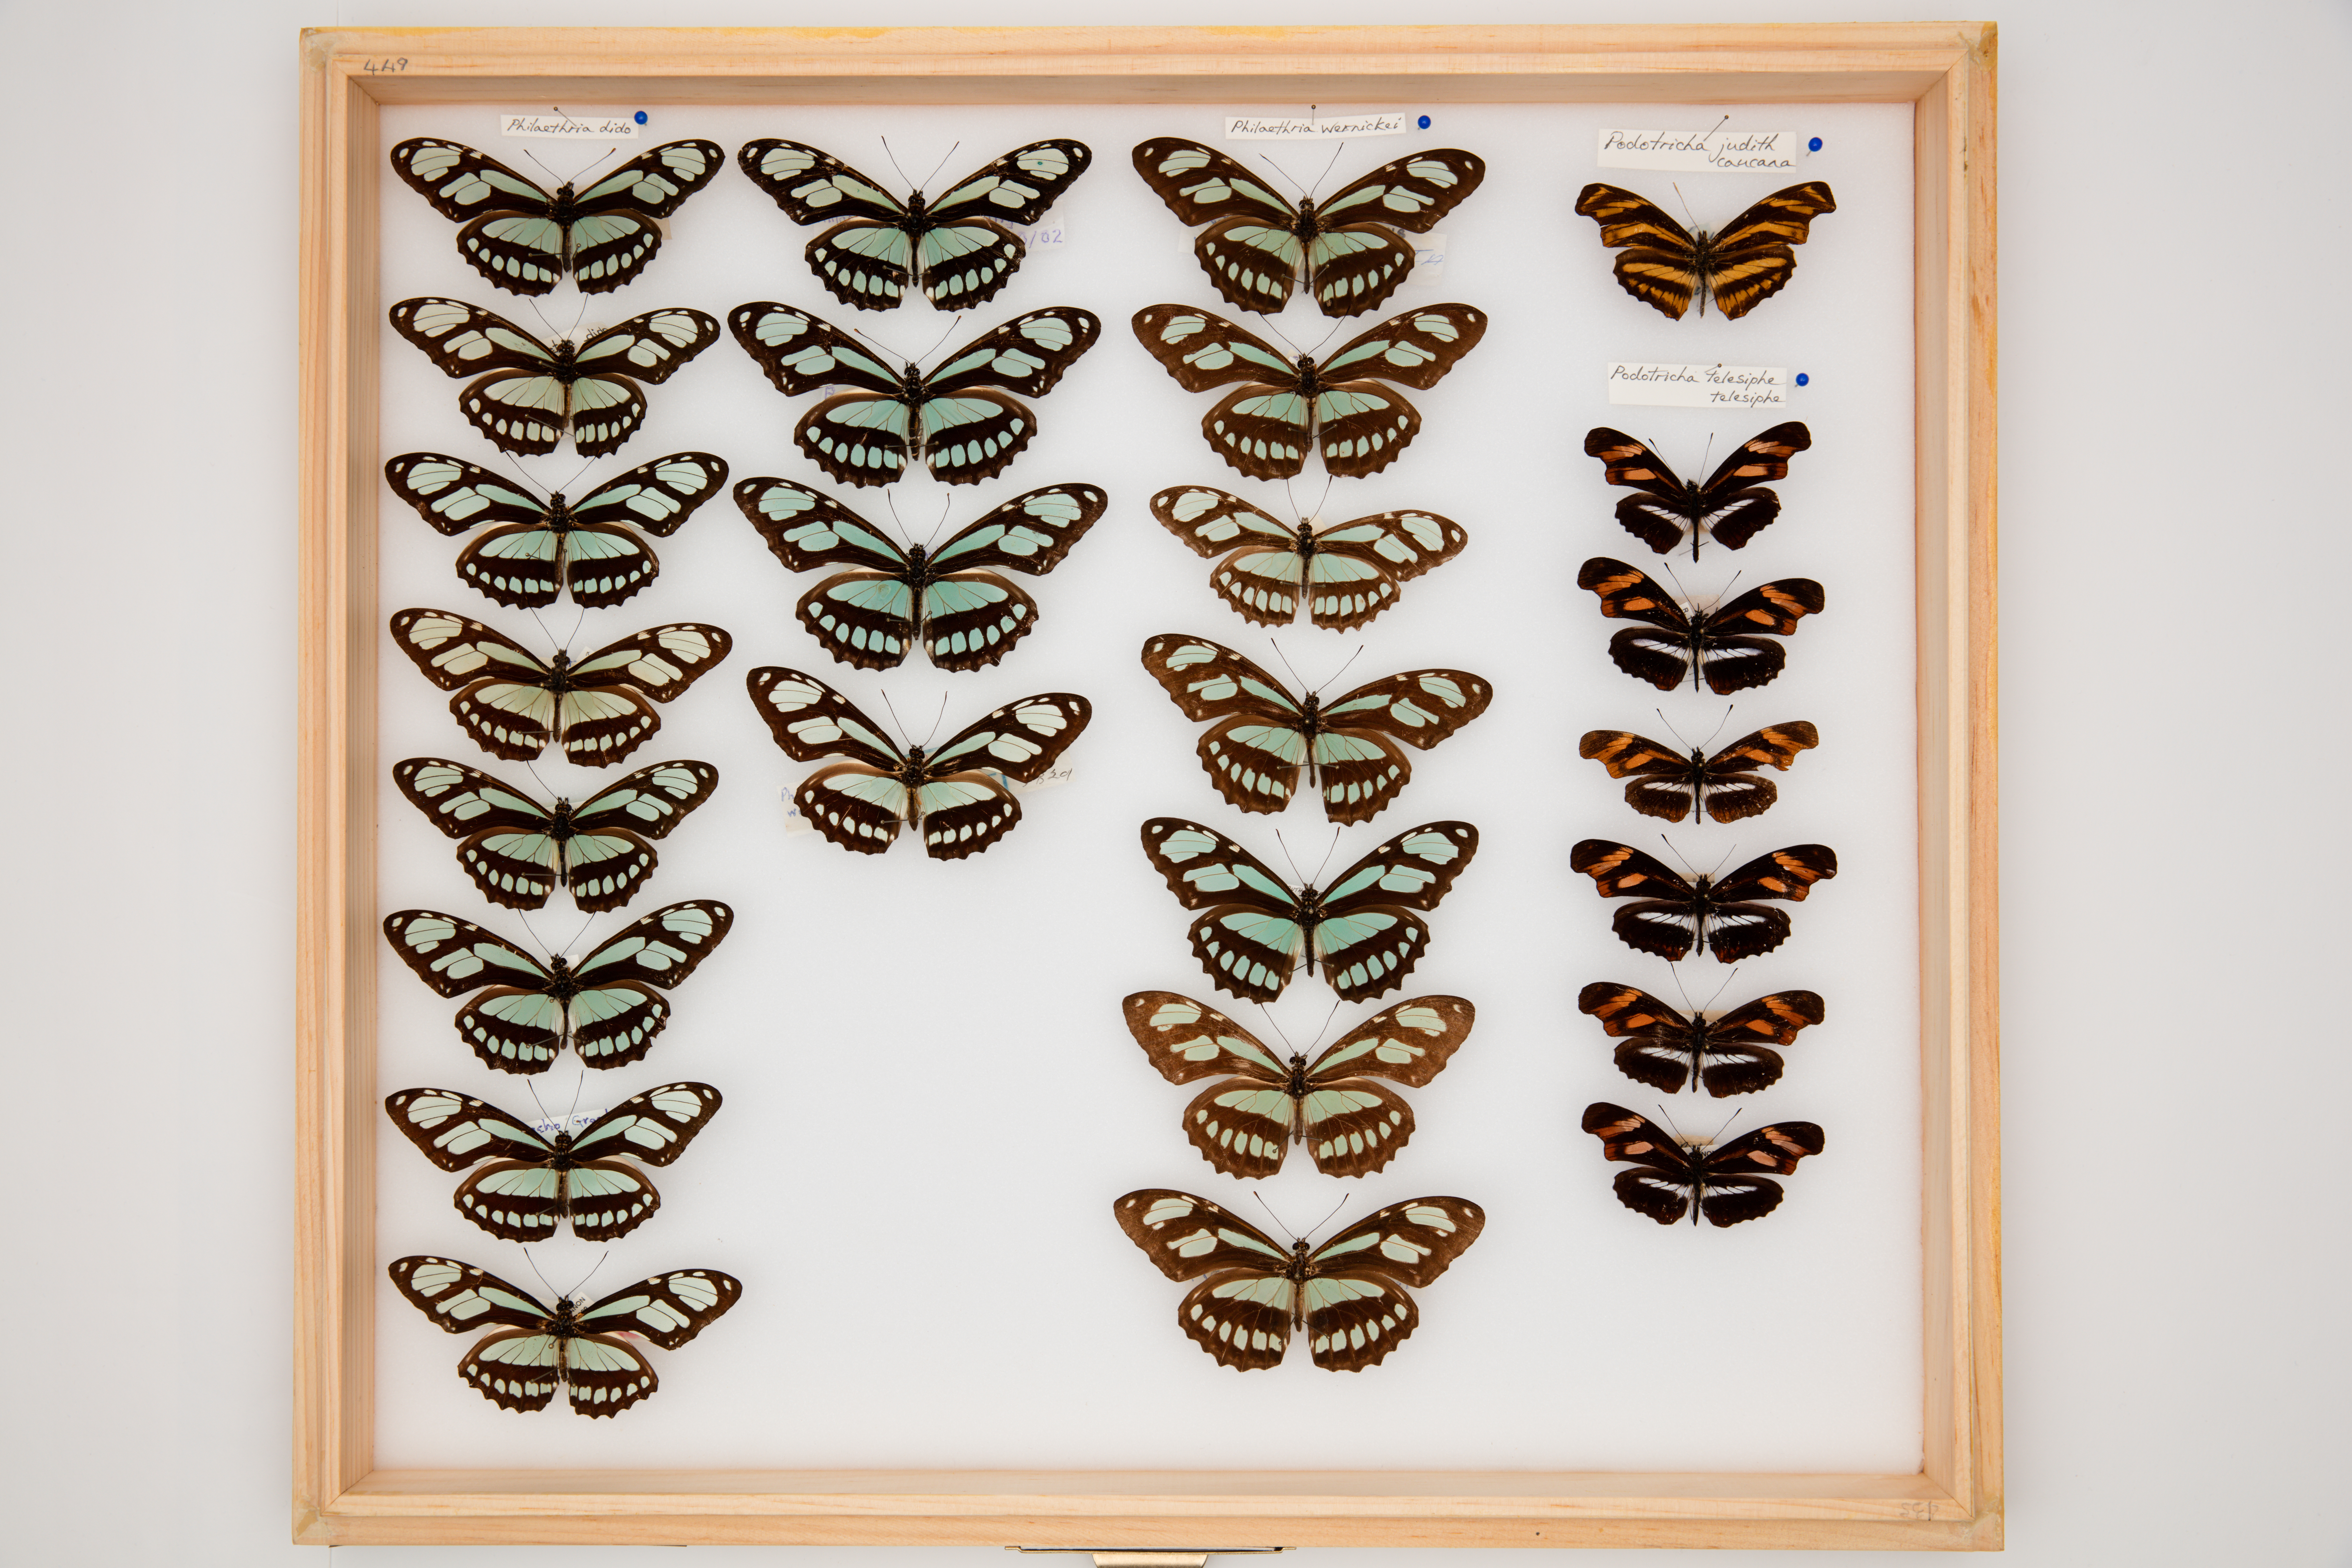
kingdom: Animalia
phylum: Arthropoda
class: Insecta
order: Lepidoptera
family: Nymphalidae
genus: Podotricha
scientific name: Podotricha telesiphe
